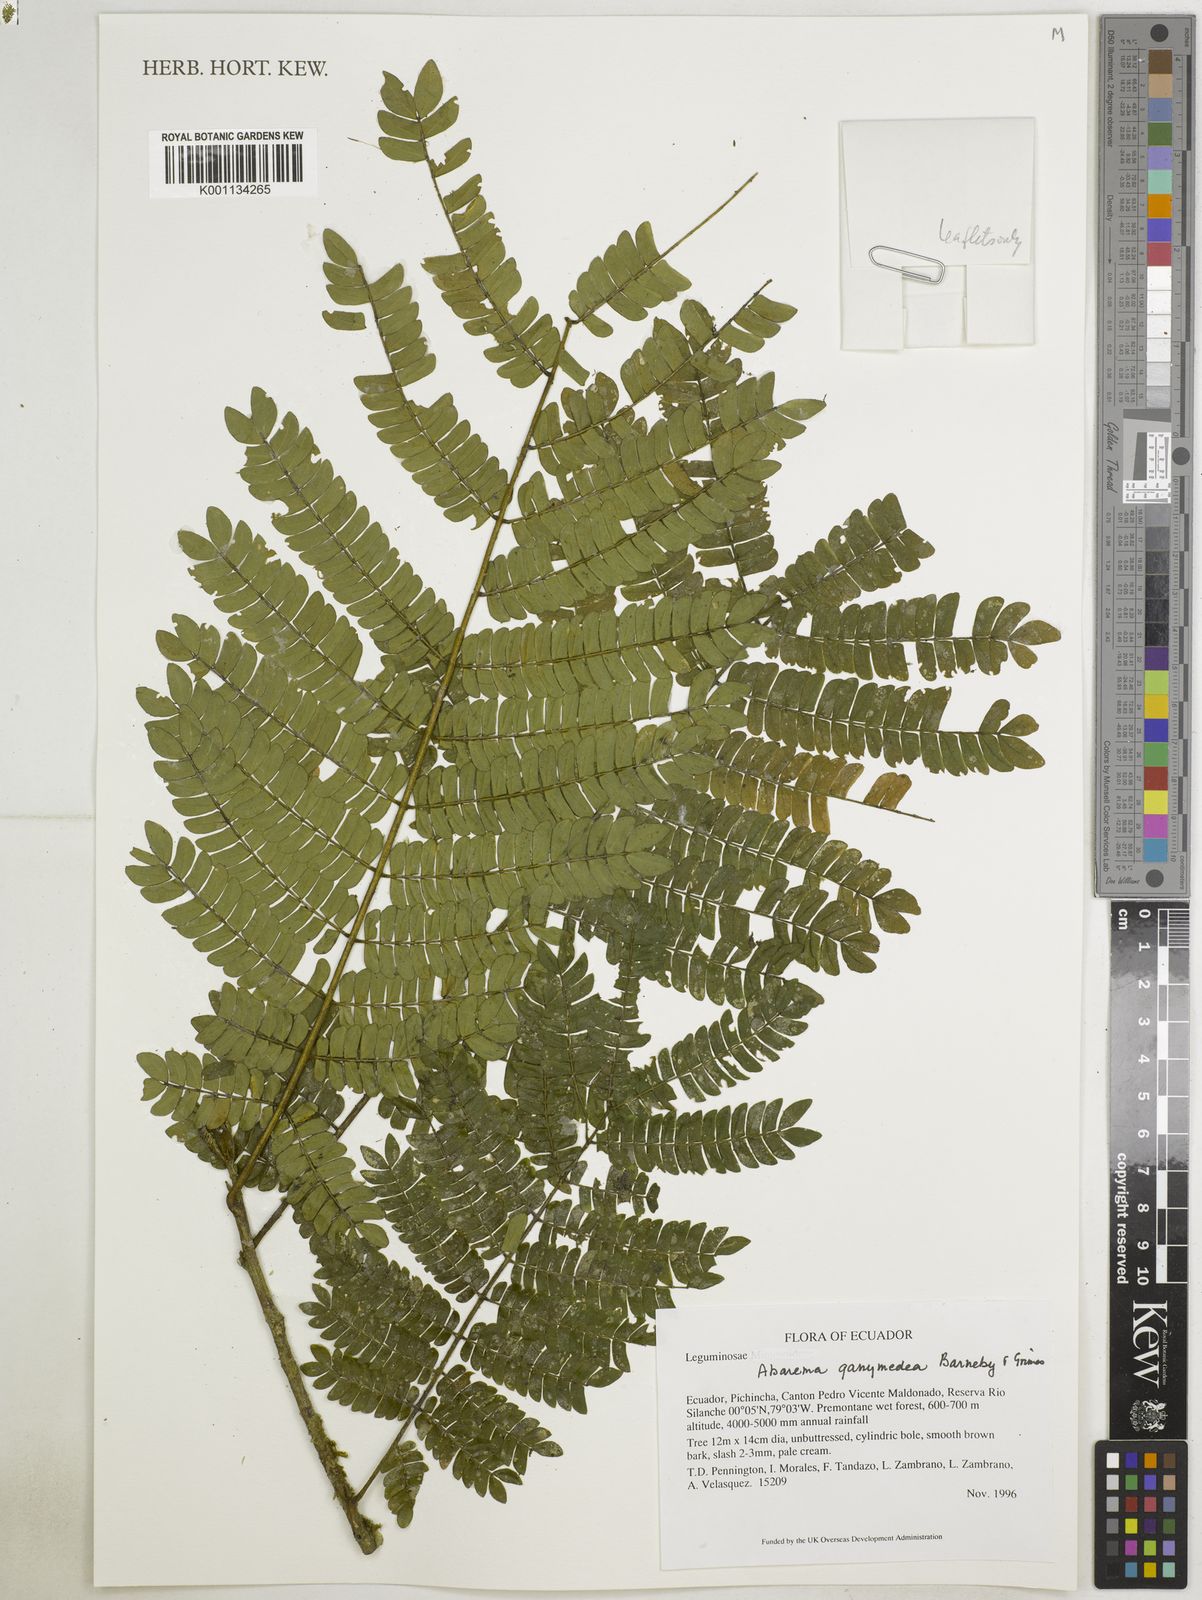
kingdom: Plantae
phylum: Tracheophyta
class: Magnoliopsida
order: Fabales
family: Fabaceae
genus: Jupunba
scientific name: Jupunba ganymedea
